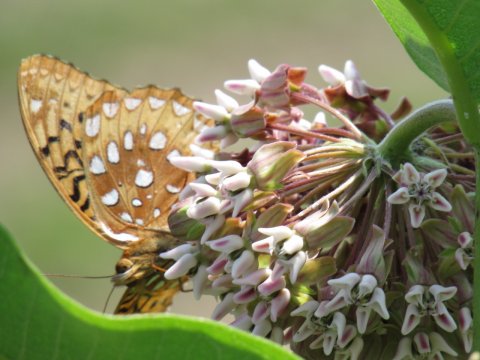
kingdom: Animalia
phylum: Arthropoda
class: Insecta
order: Lepidoptera
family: Nymphalidae
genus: Speyeria
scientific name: Speyeria cybele
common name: Great Spangled Fritillary
